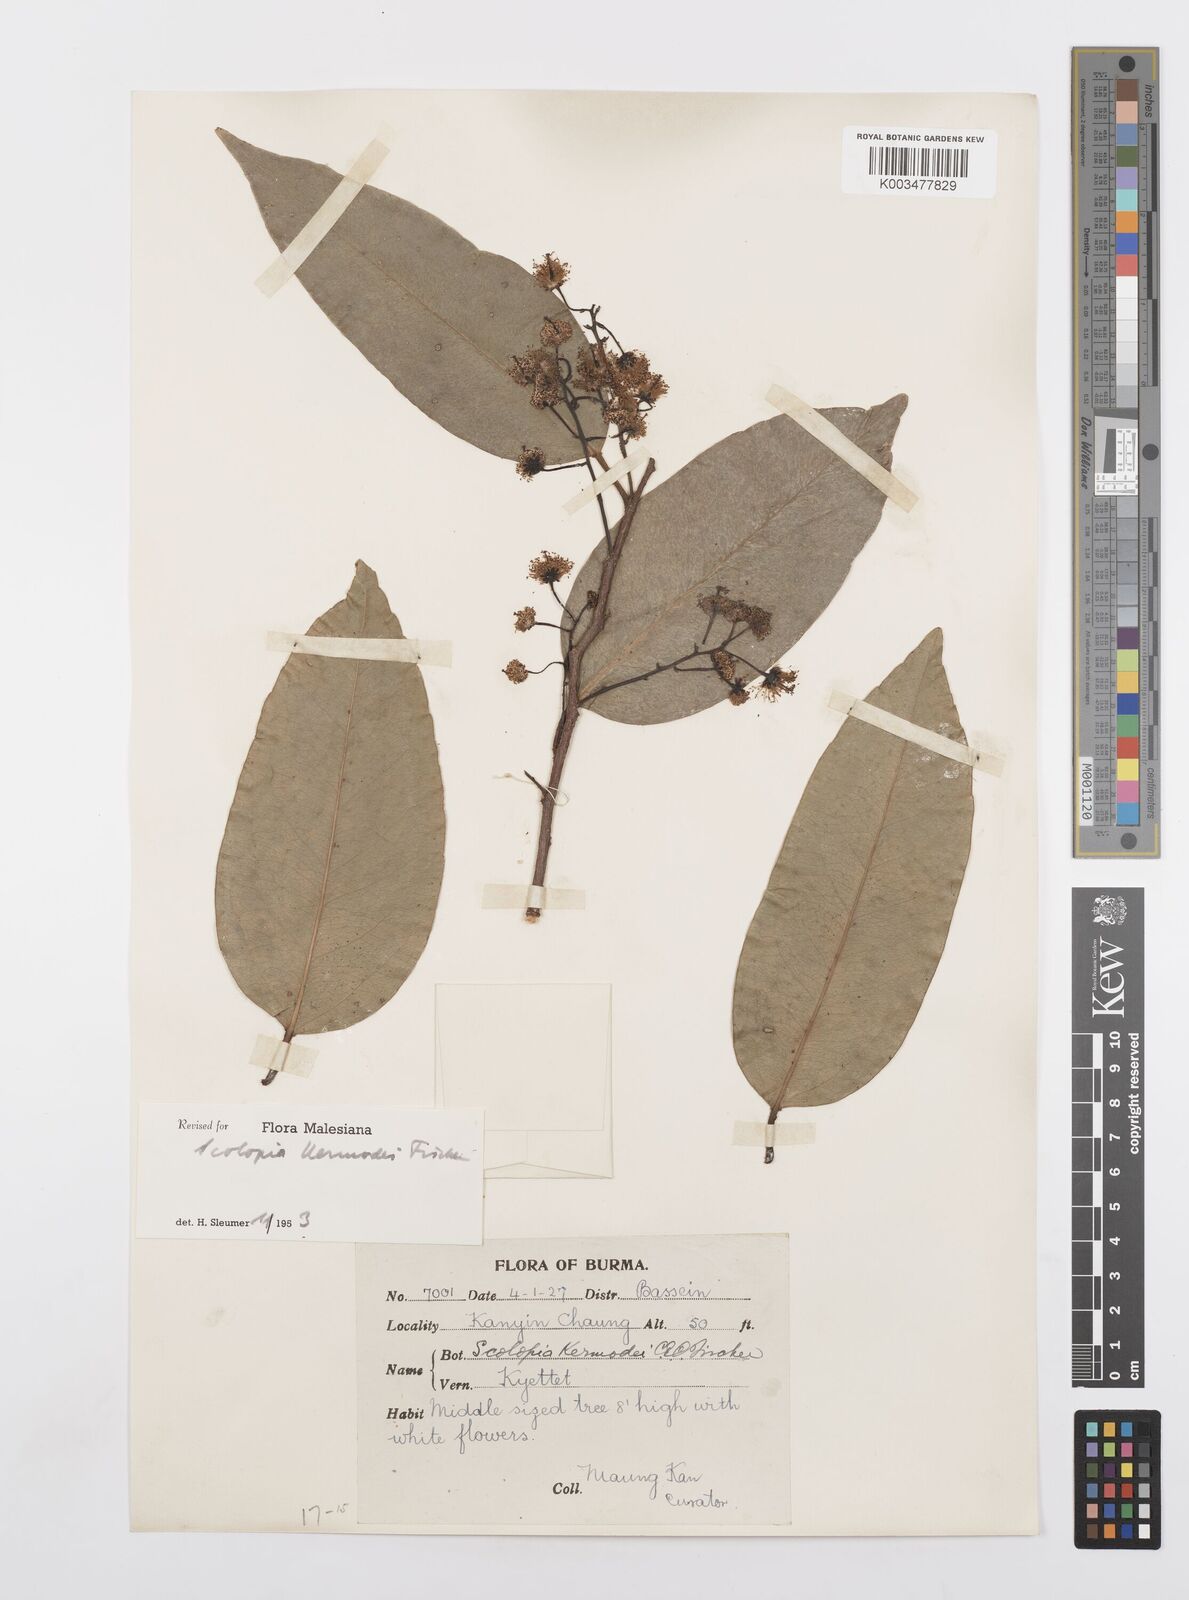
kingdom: Plantae
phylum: Tracheophyta
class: Magnoliopsida
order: Malpighiales
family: Salicaceae
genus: Scolopia
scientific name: Scolopia kermodei
